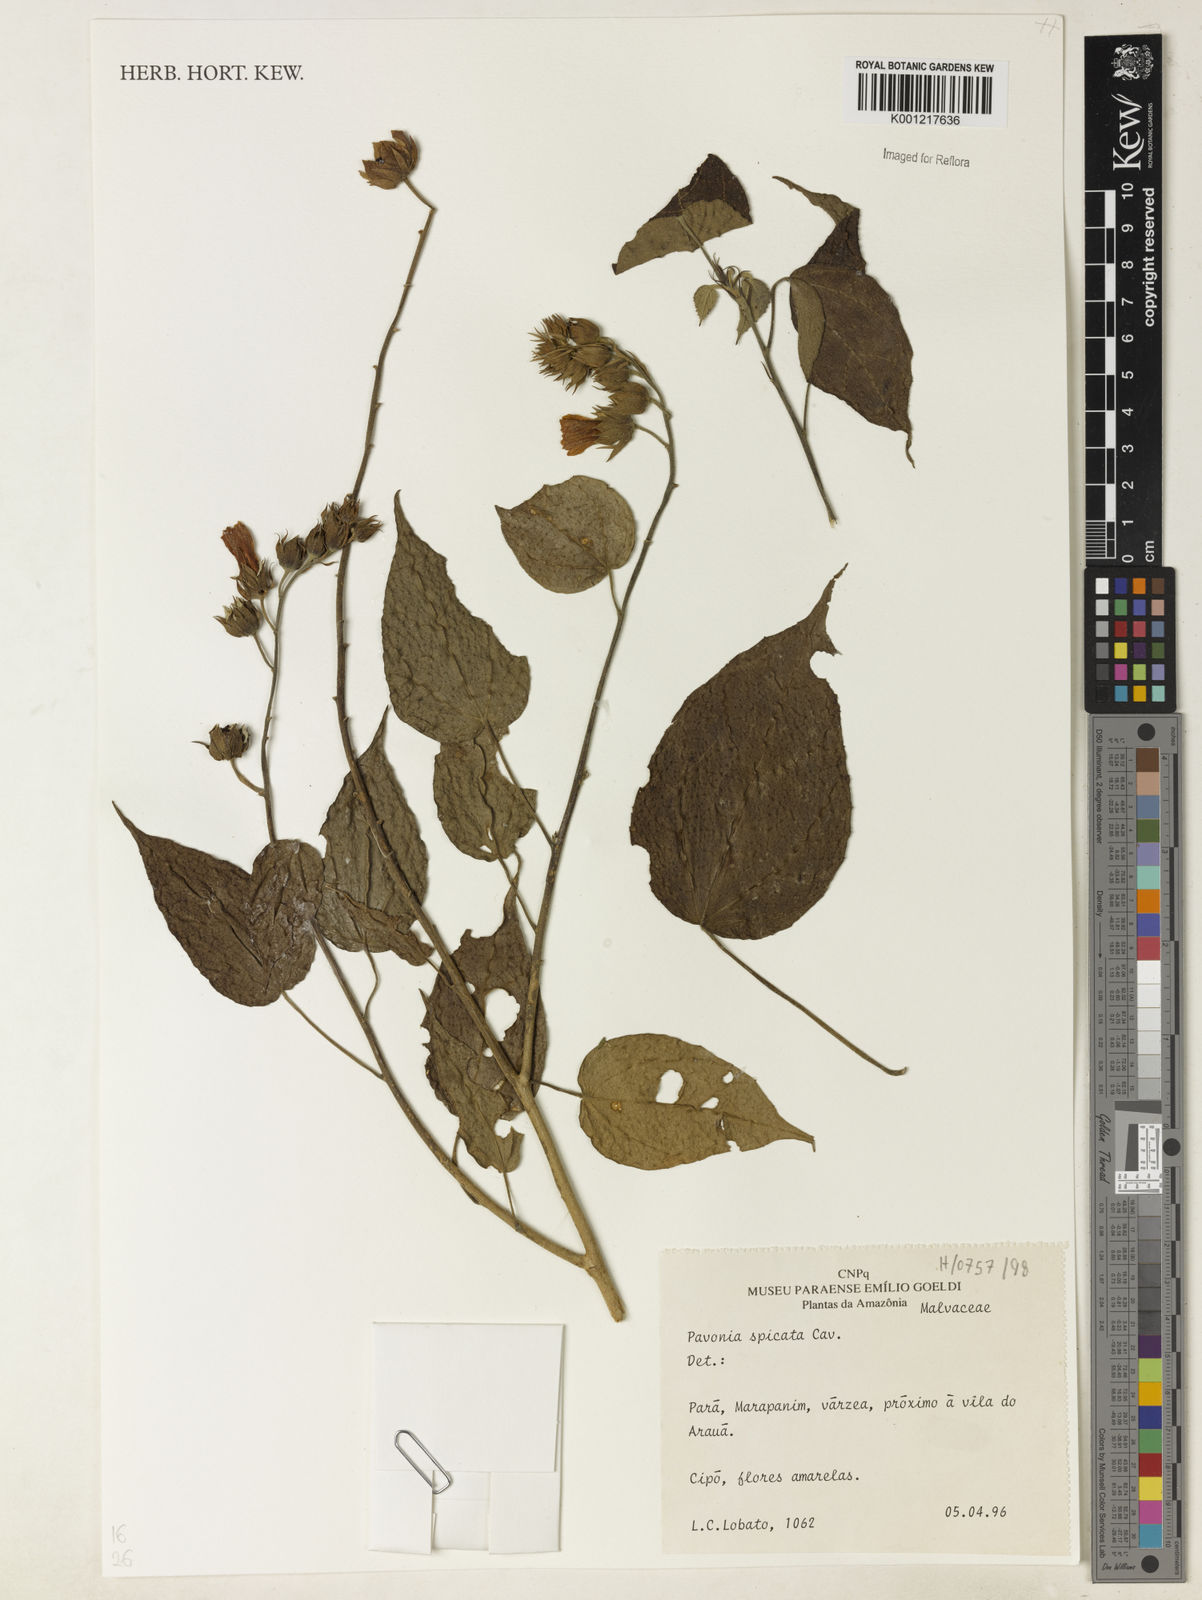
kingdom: Plantae
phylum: Tracheophyta
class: Magnoliopsida
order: Malvales
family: Malvaceae
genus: Pavonia
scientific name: Pavonia paludicola
